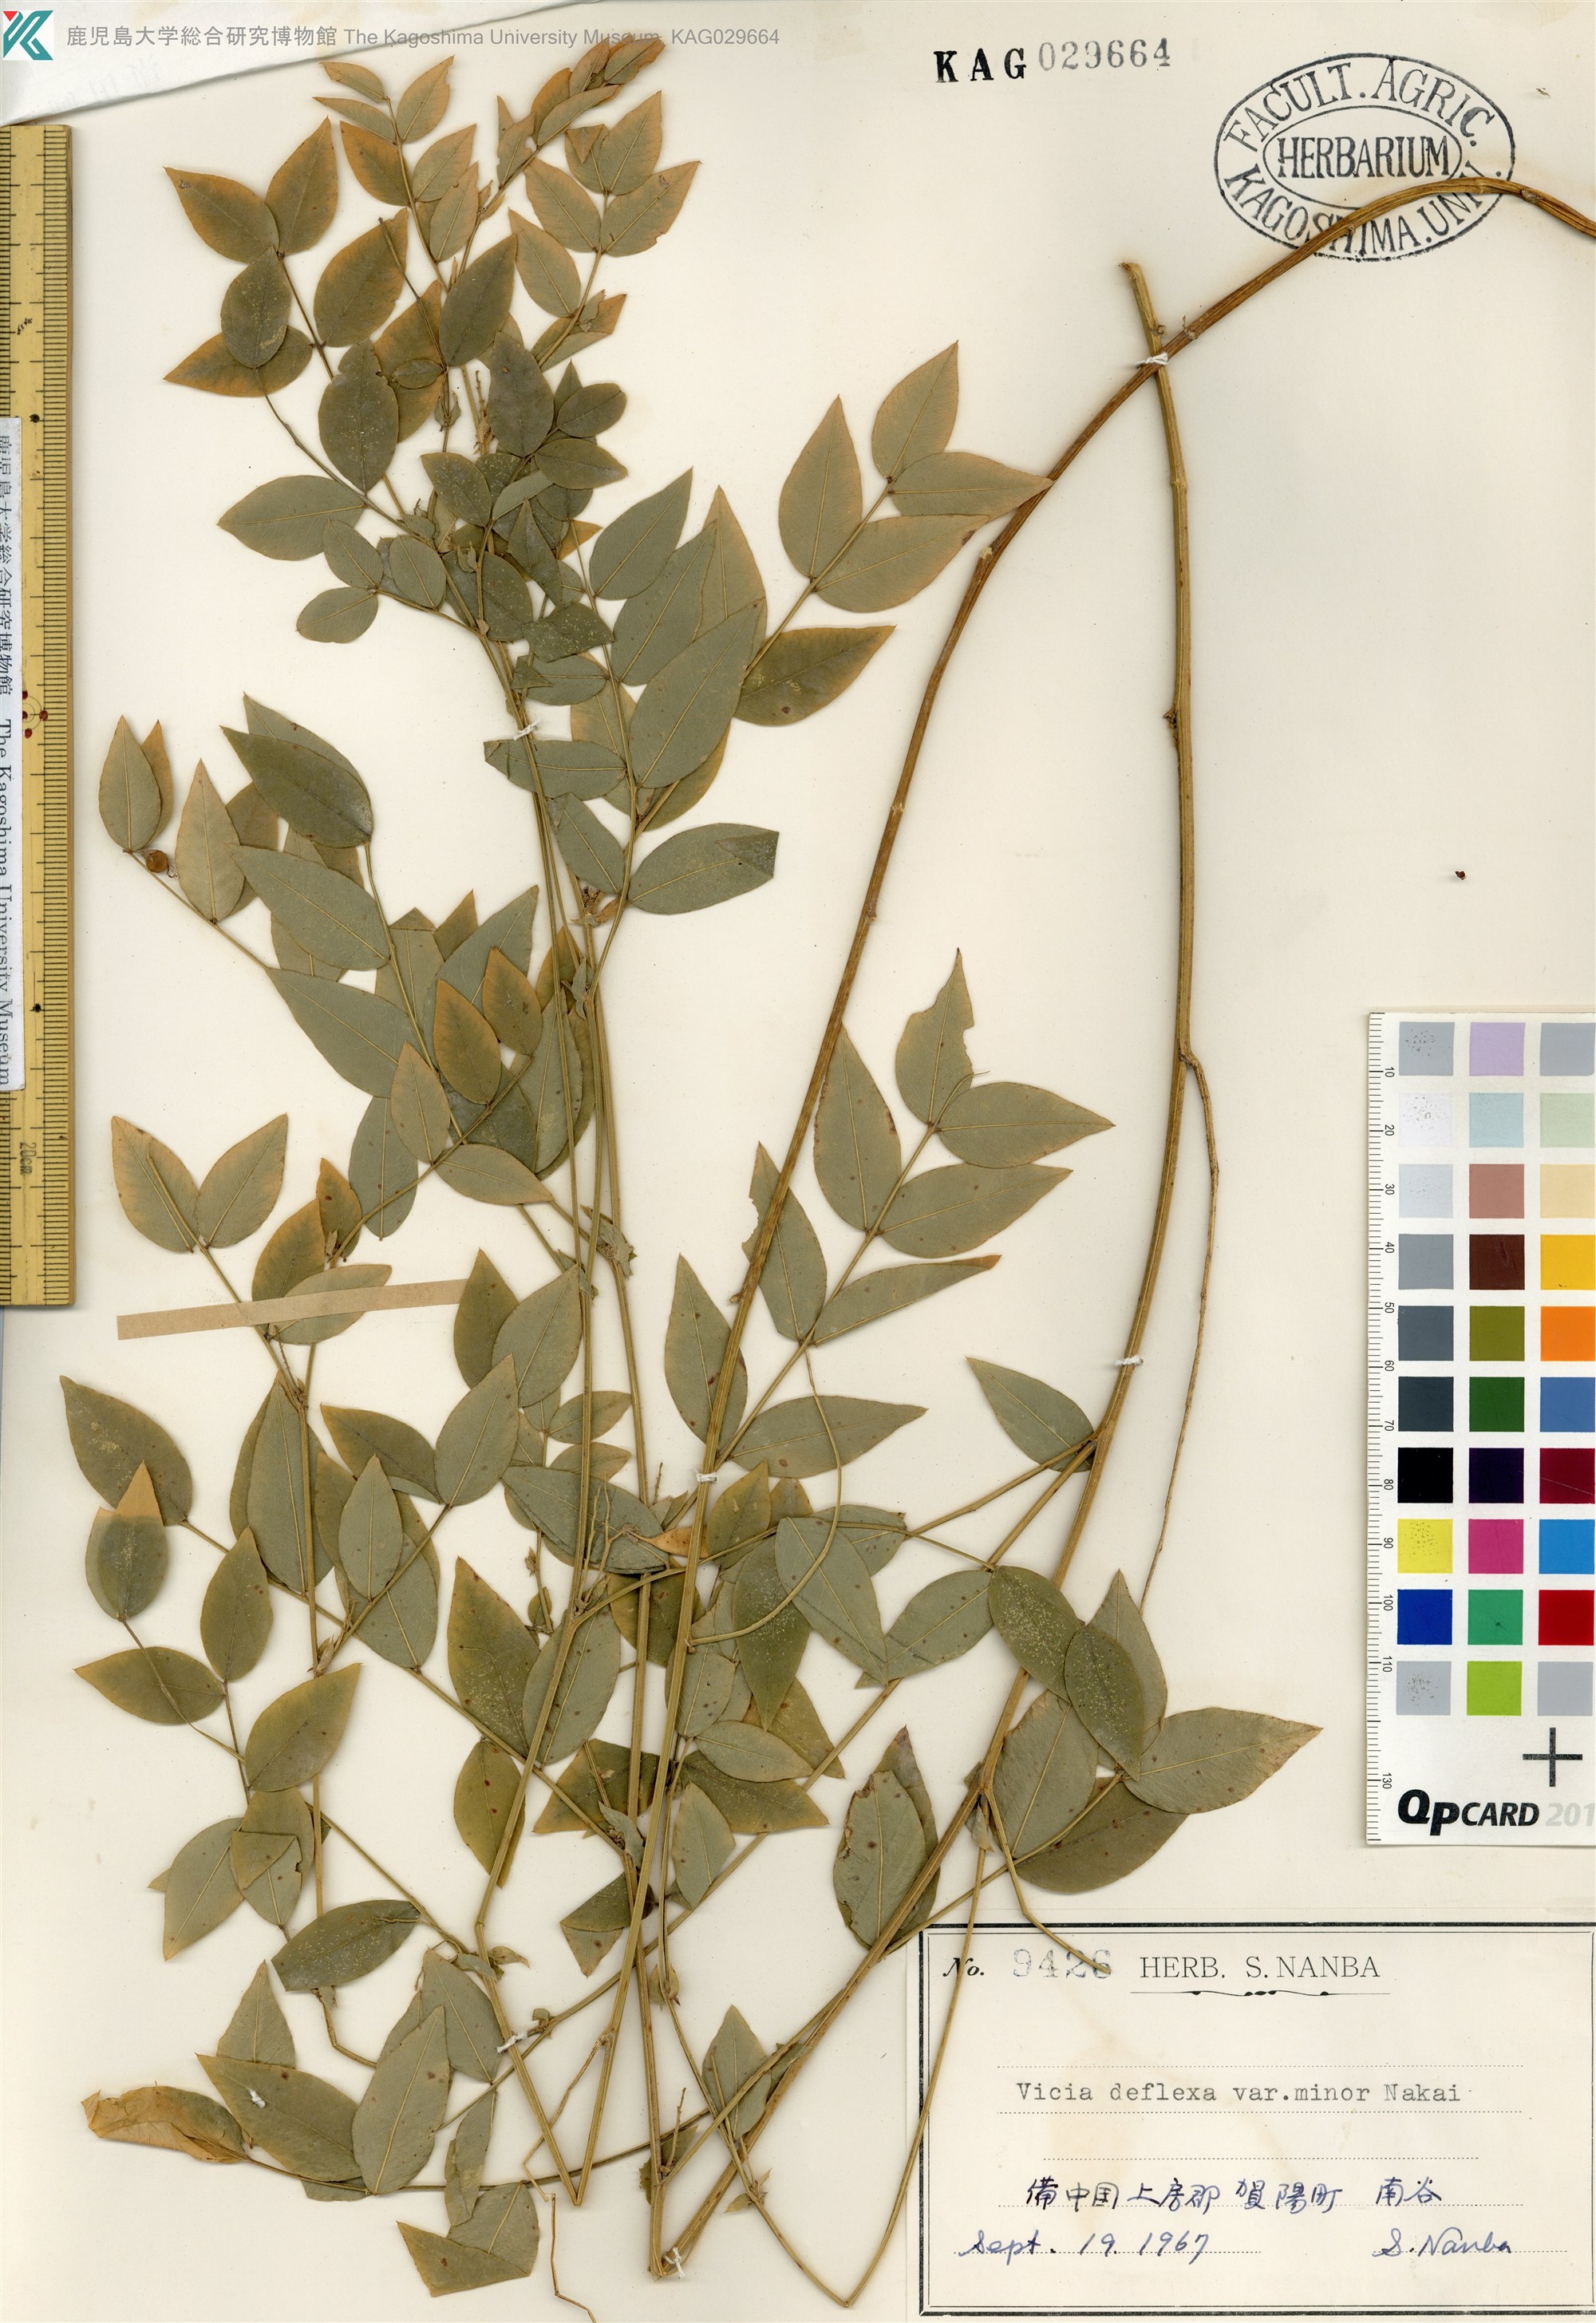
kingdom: Plantae
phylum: Tracheophyta
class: Magnoliopsida
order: Fabales
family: Fabaceae
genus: Vicia
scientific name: Vicia venosa
